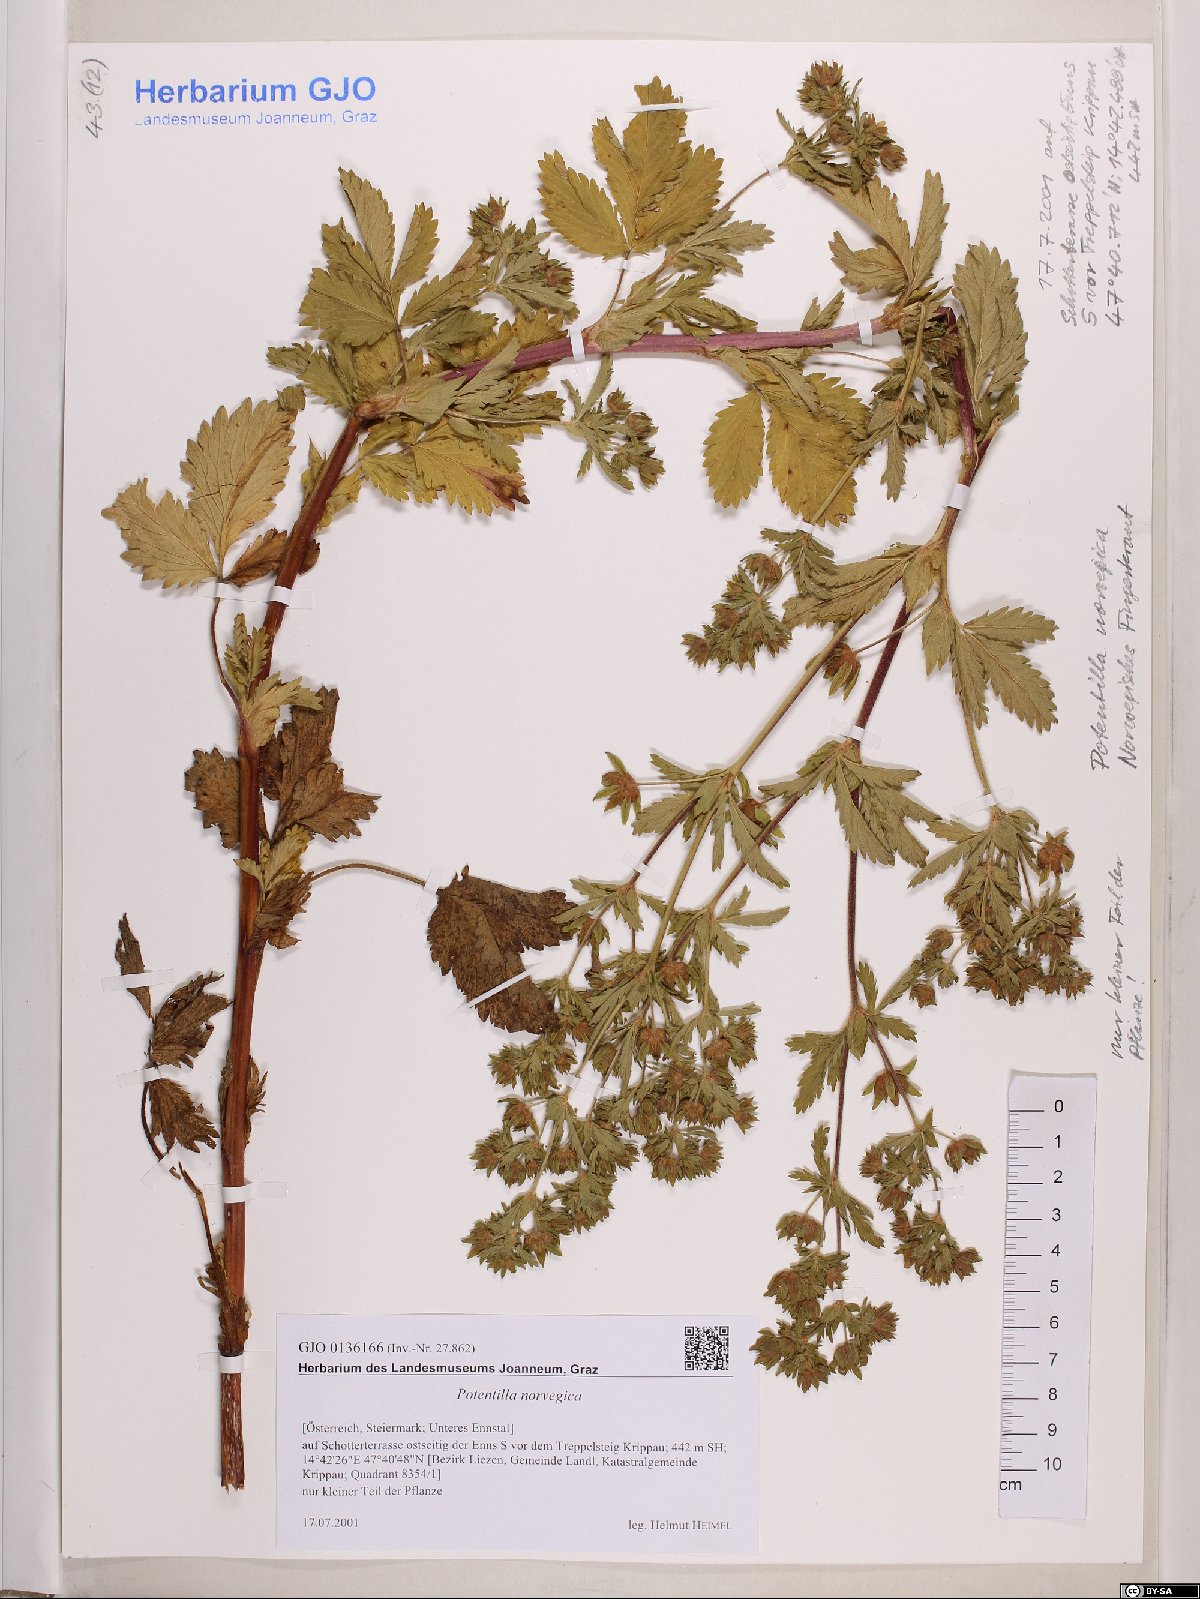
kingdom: Plantae
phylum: Tracheophyta
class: Magnoliopsida
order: Rosales
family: Rosaceae
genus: Potentilla
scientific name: Potentilla norvegica
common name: Ternate-leaved cinquefoil
